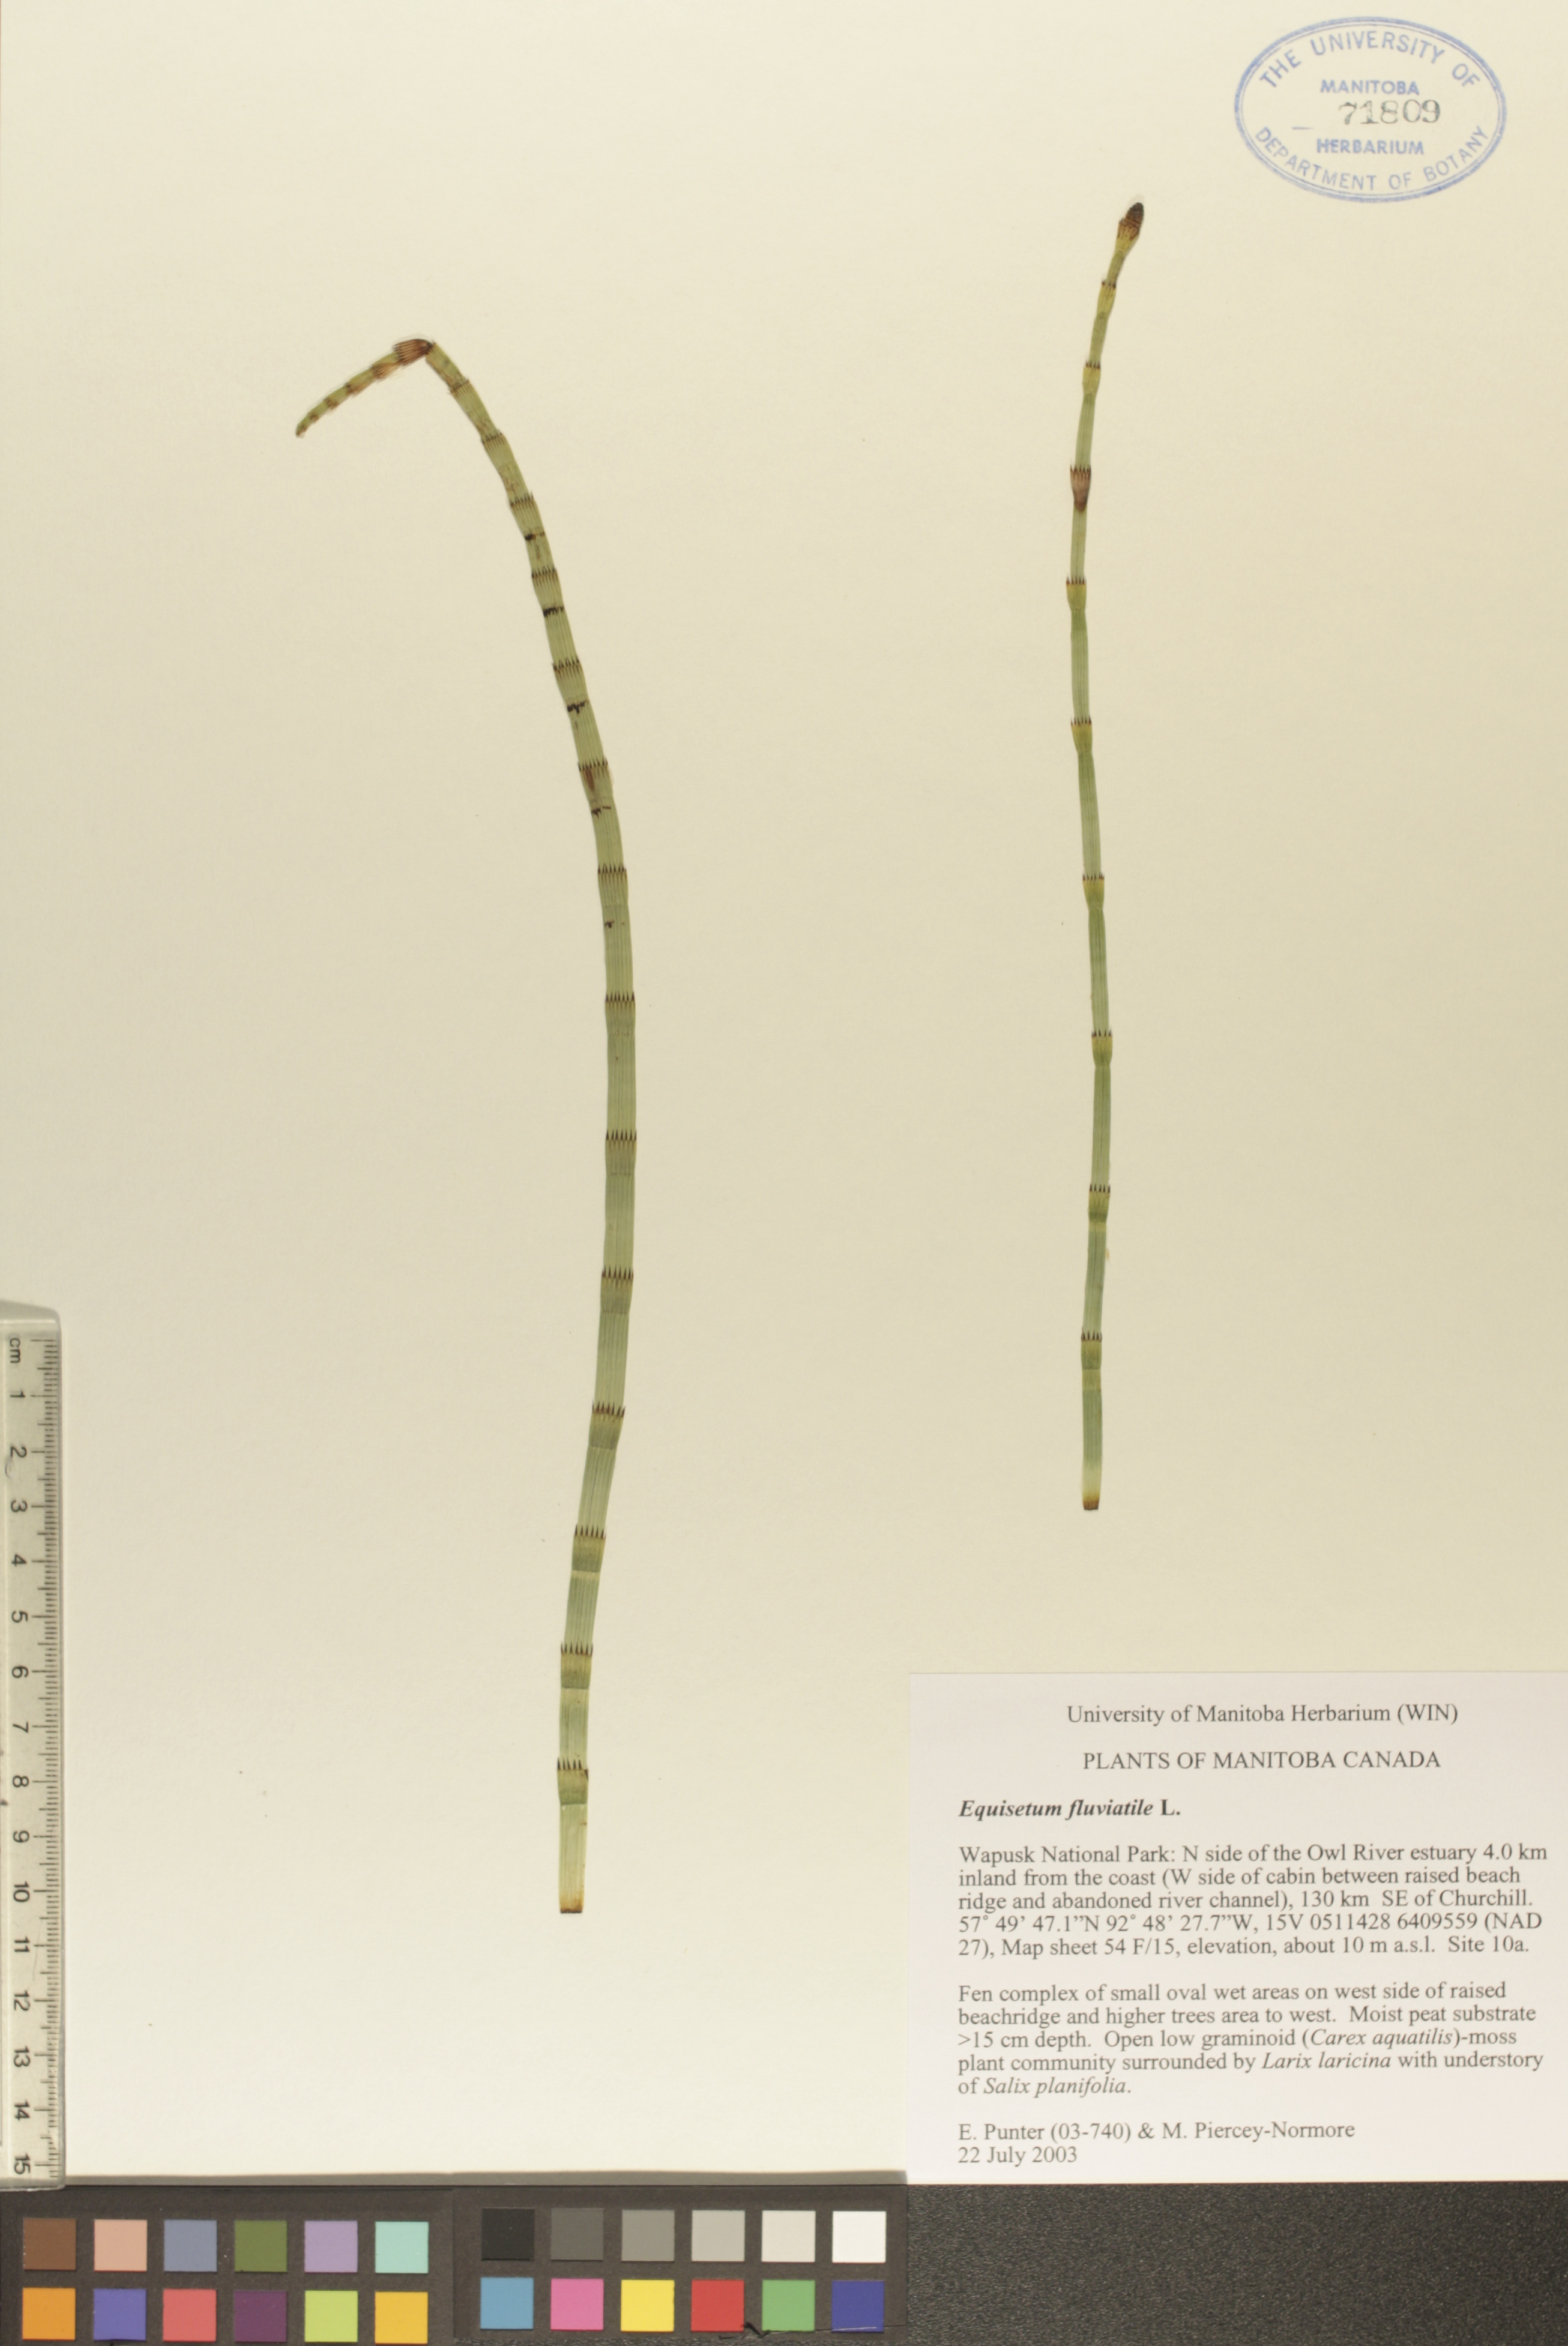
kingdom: Plantae
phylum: Tracheophyta
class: Polypodiopsida
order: Equisetales
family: Equisetaceae
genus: Equisetum
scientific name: Equisetum fluviatile
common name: Water horsetail
